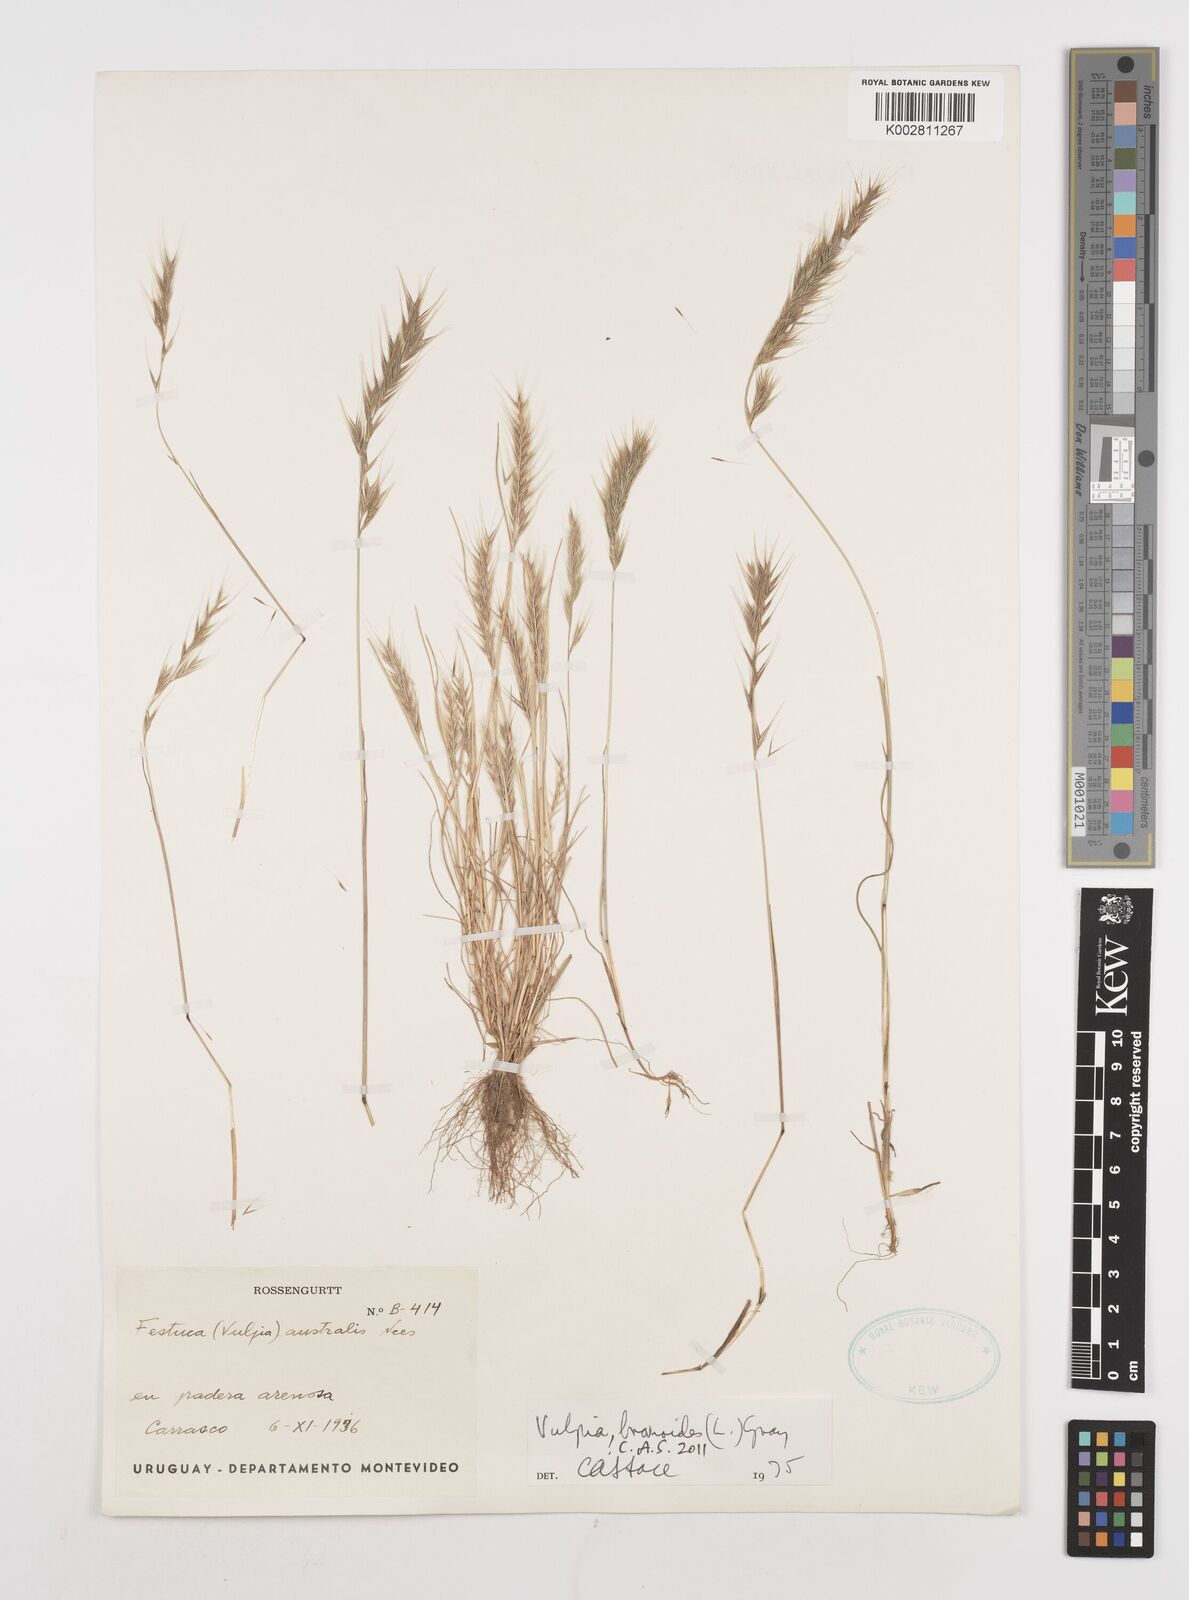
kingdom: Plantae
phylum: Tracheophyta
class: Liliopsida
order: Poales
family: Poaceae
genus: Festuca
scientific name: Festuca bromoides
